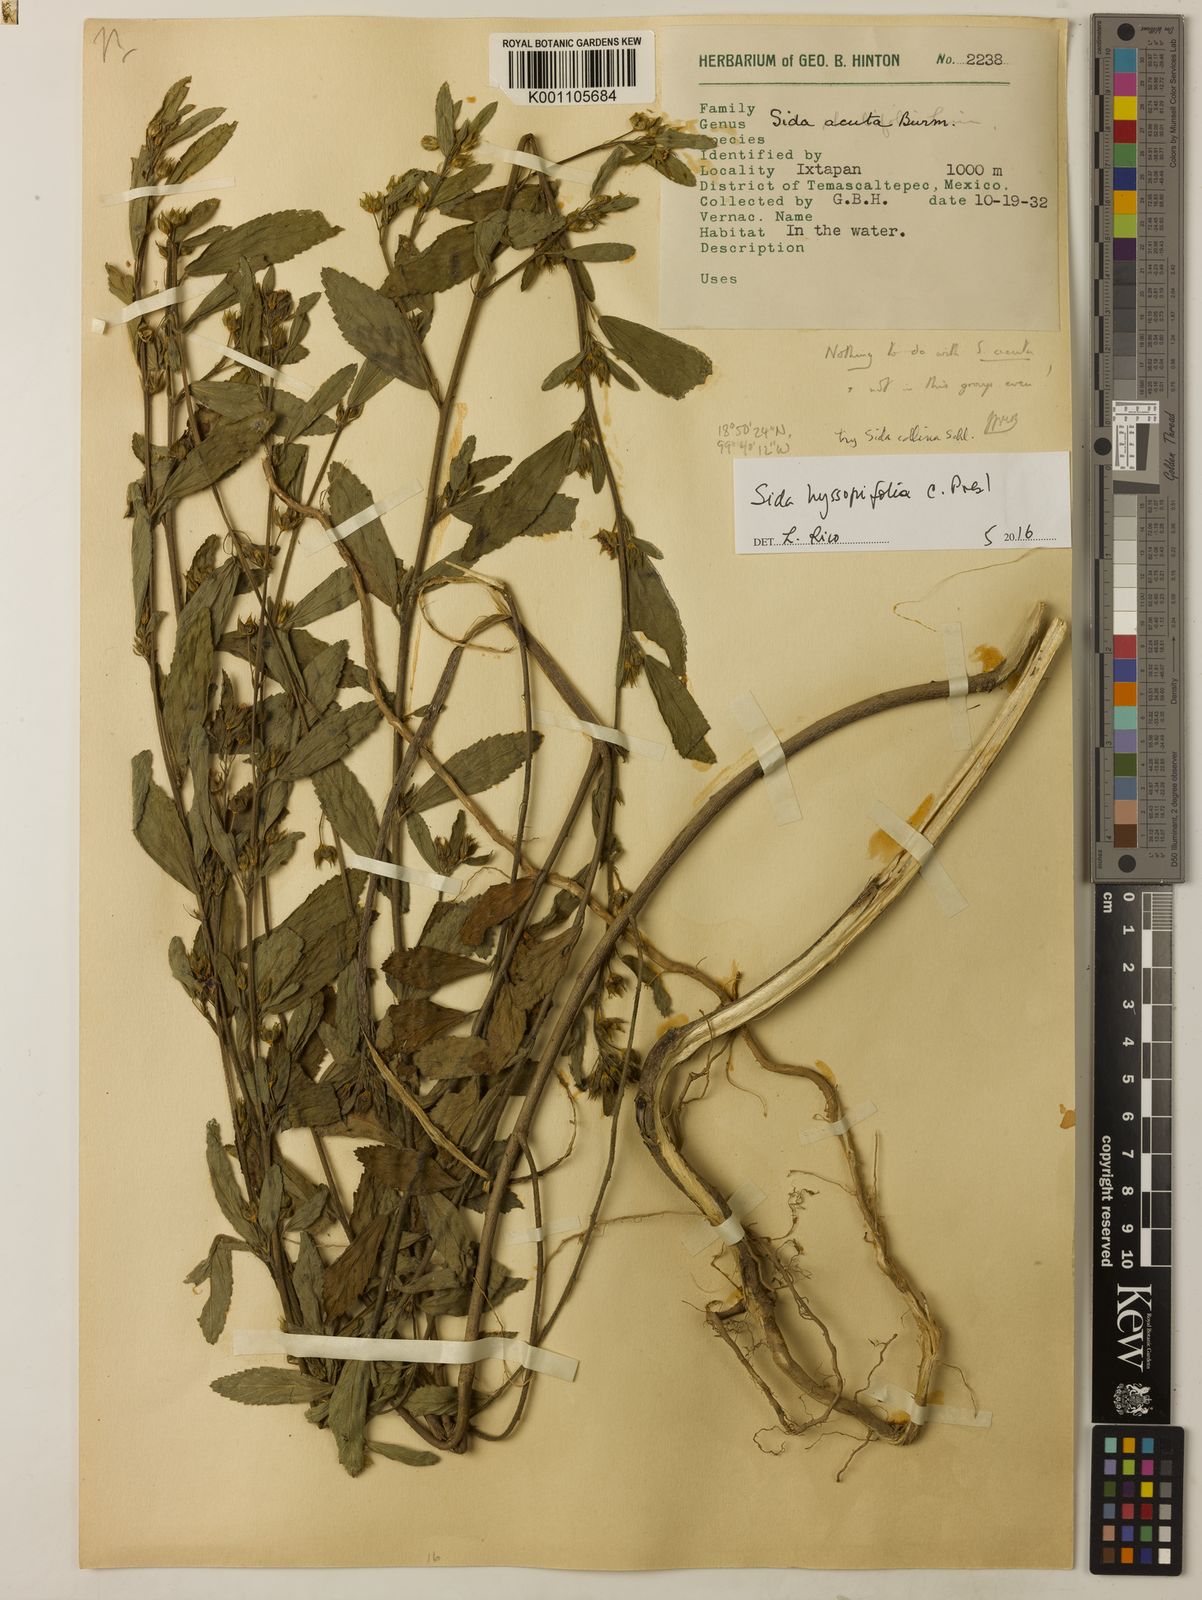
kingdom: Plantae
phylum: Tracheophyta
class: Magnoliopsida
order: Malvales
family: Malvaceae
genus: Sida
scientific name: Sida hyssopifolia
